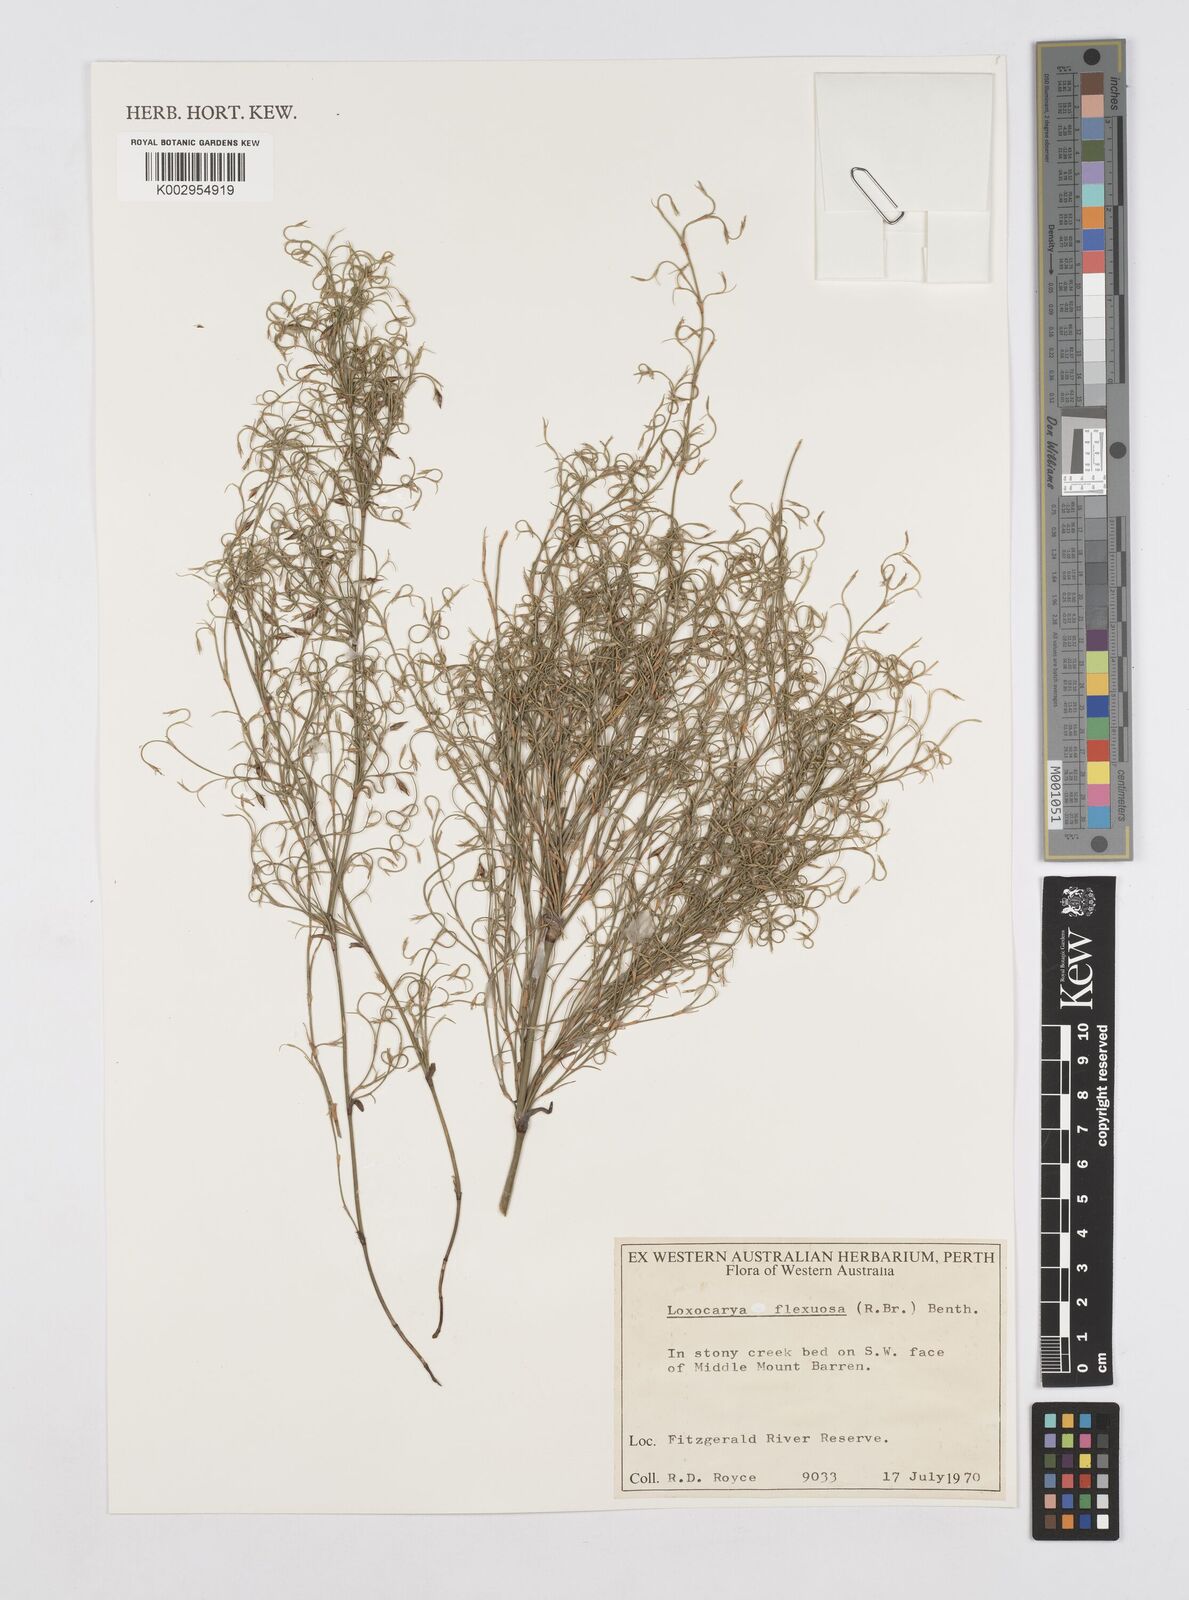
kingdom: Plantae
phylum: Tracheophyta
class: Liliopsida
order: Poales
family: Restionaceae
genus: Desmocladus
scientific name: Desmocladus flexuosus
